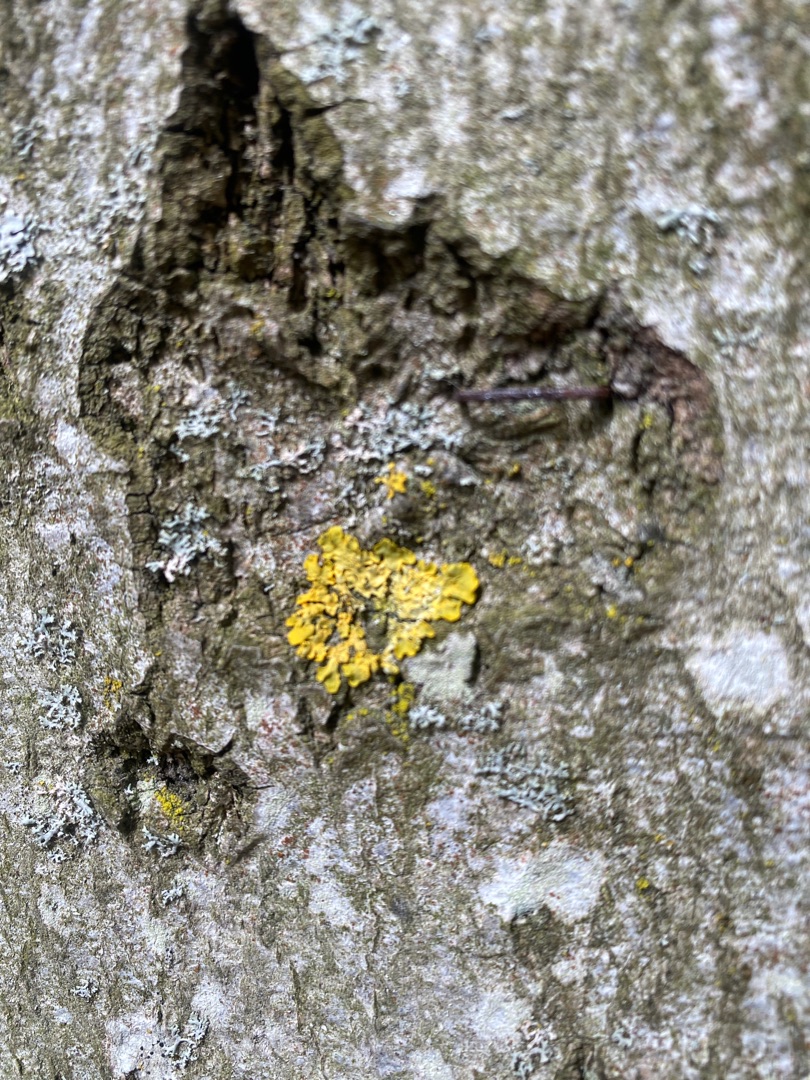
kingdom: Fungi
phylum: Ascomycota
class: Lecanoromycetes
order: Teloschistales
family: Teloschistaceae
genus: Xanthoria
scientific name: Xanthoria parietina
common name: Almindelig væggelav
